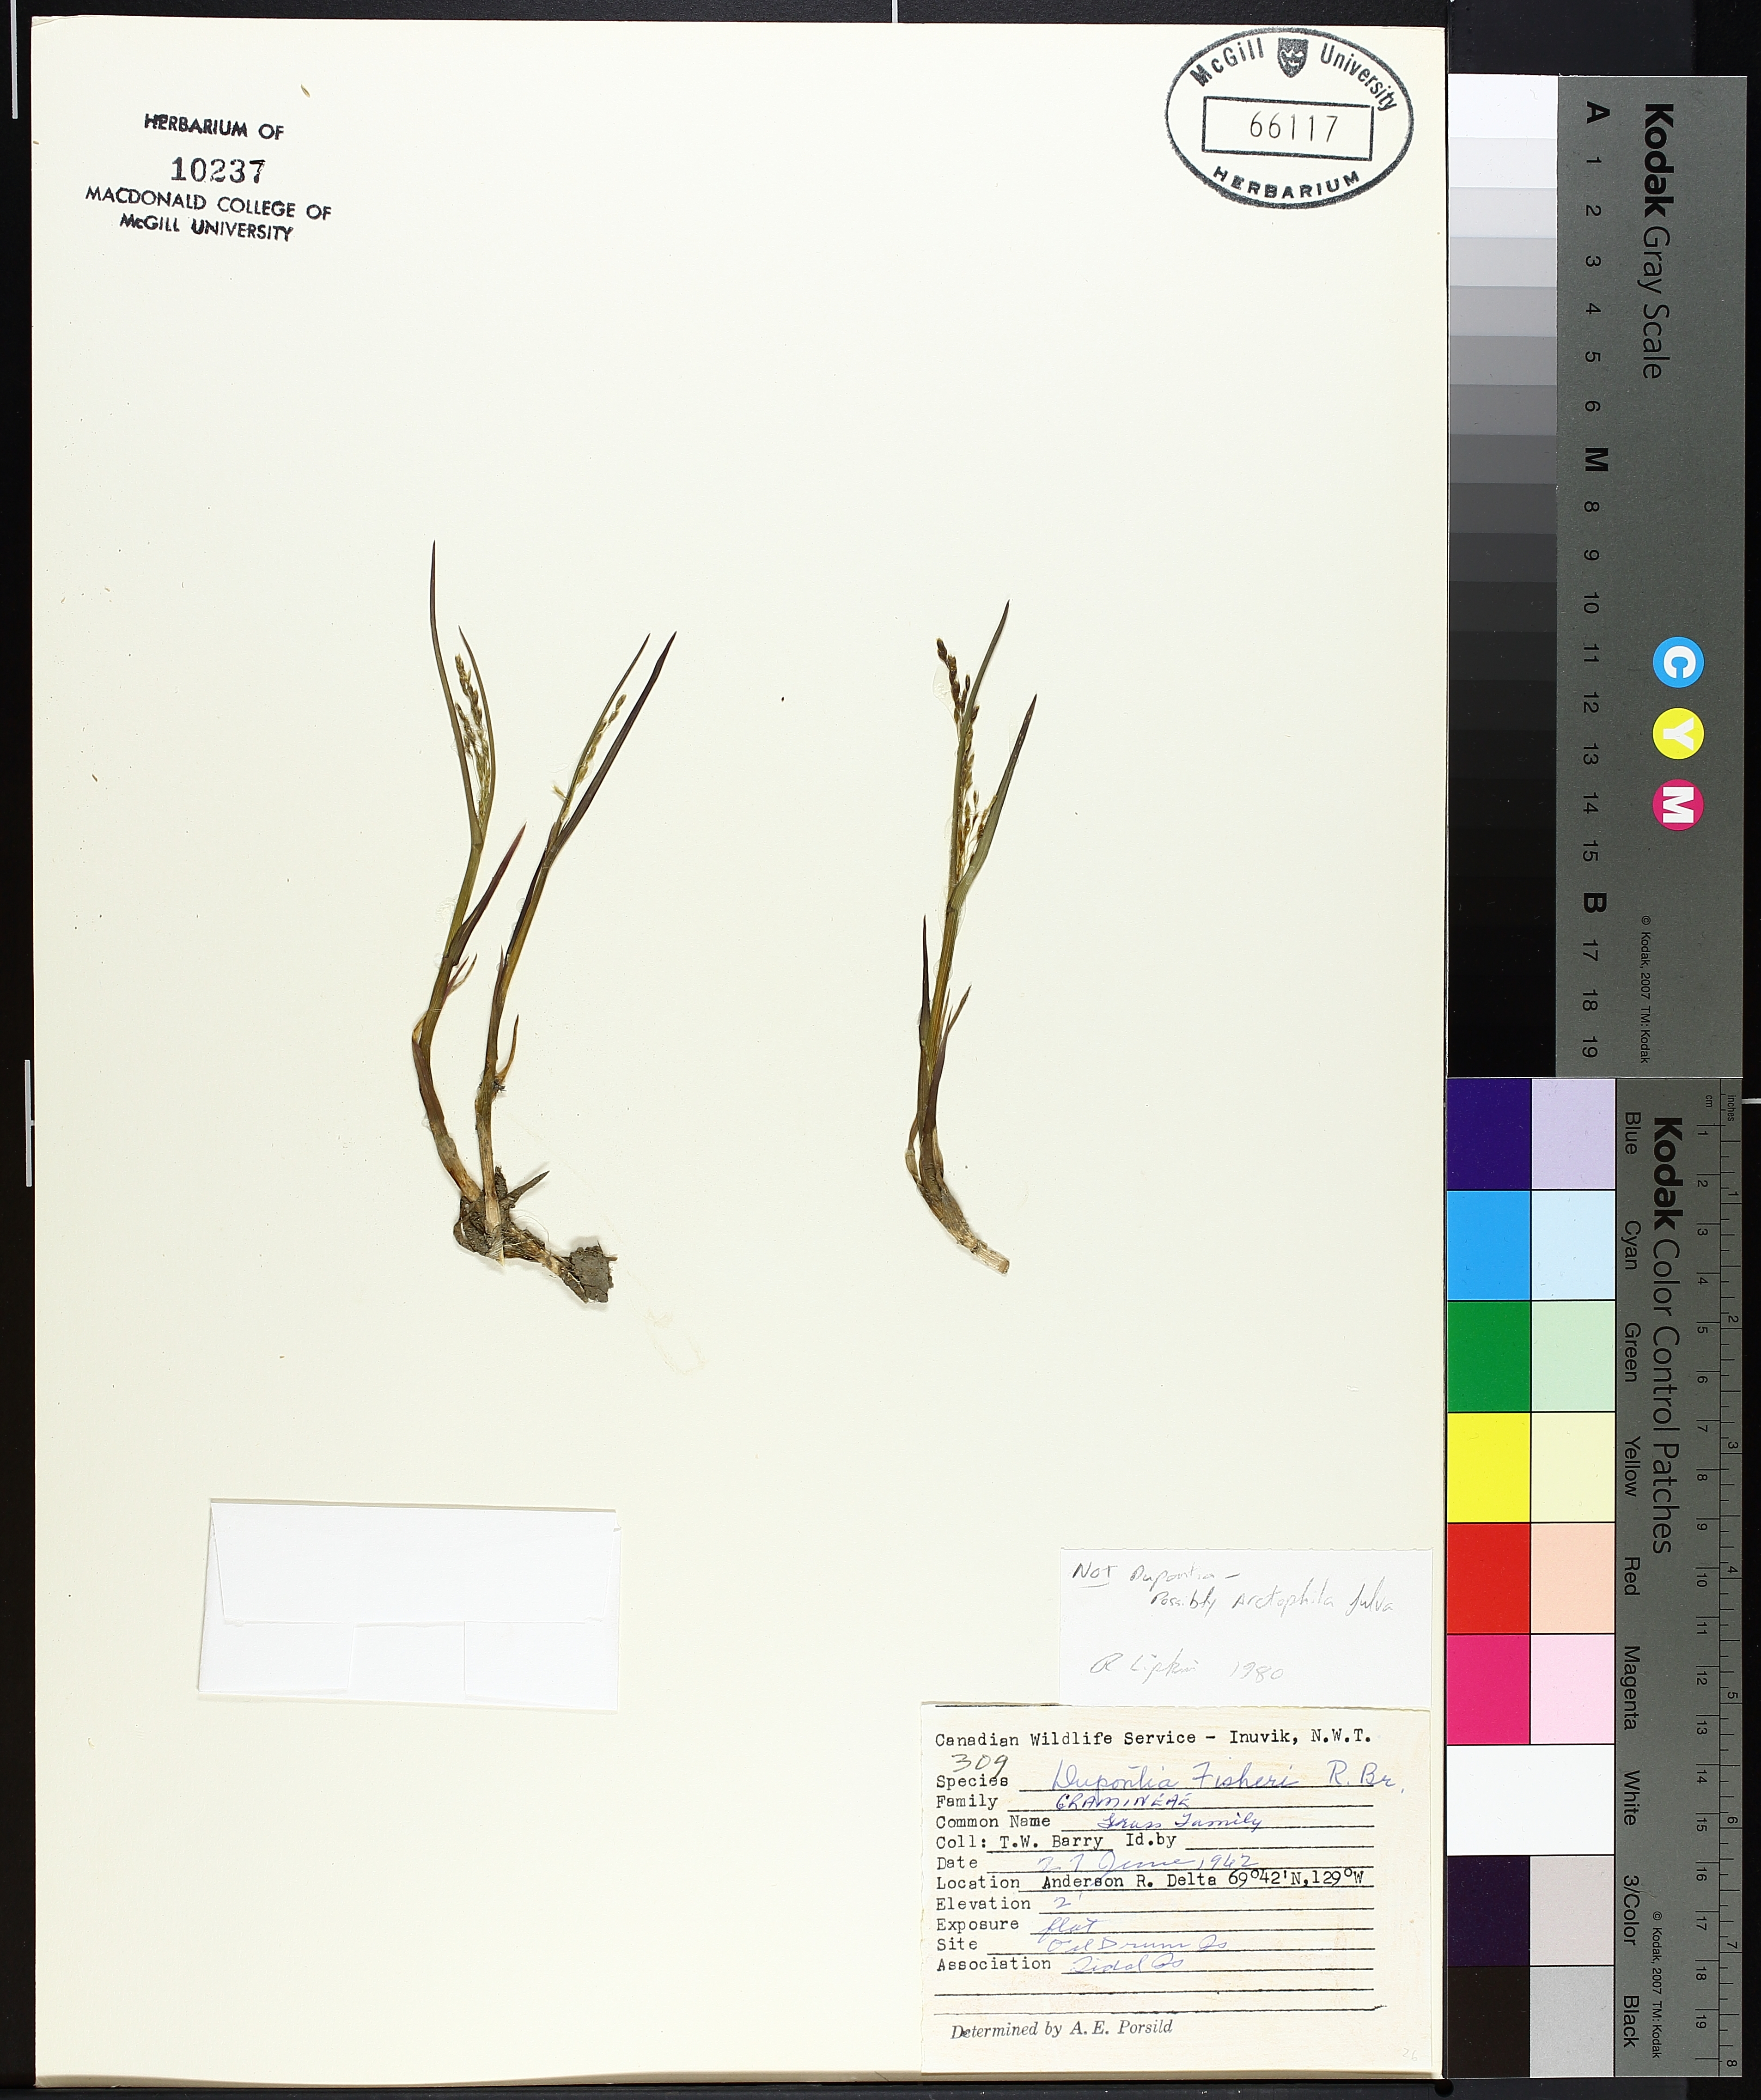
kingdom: Plantae
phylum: Tracheophyta
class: Liliopsida
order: Asparagales
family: Orchidaceae
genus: Goodyera
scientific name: Goodyera pubescens
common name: Downy rattlesnake-plantain
